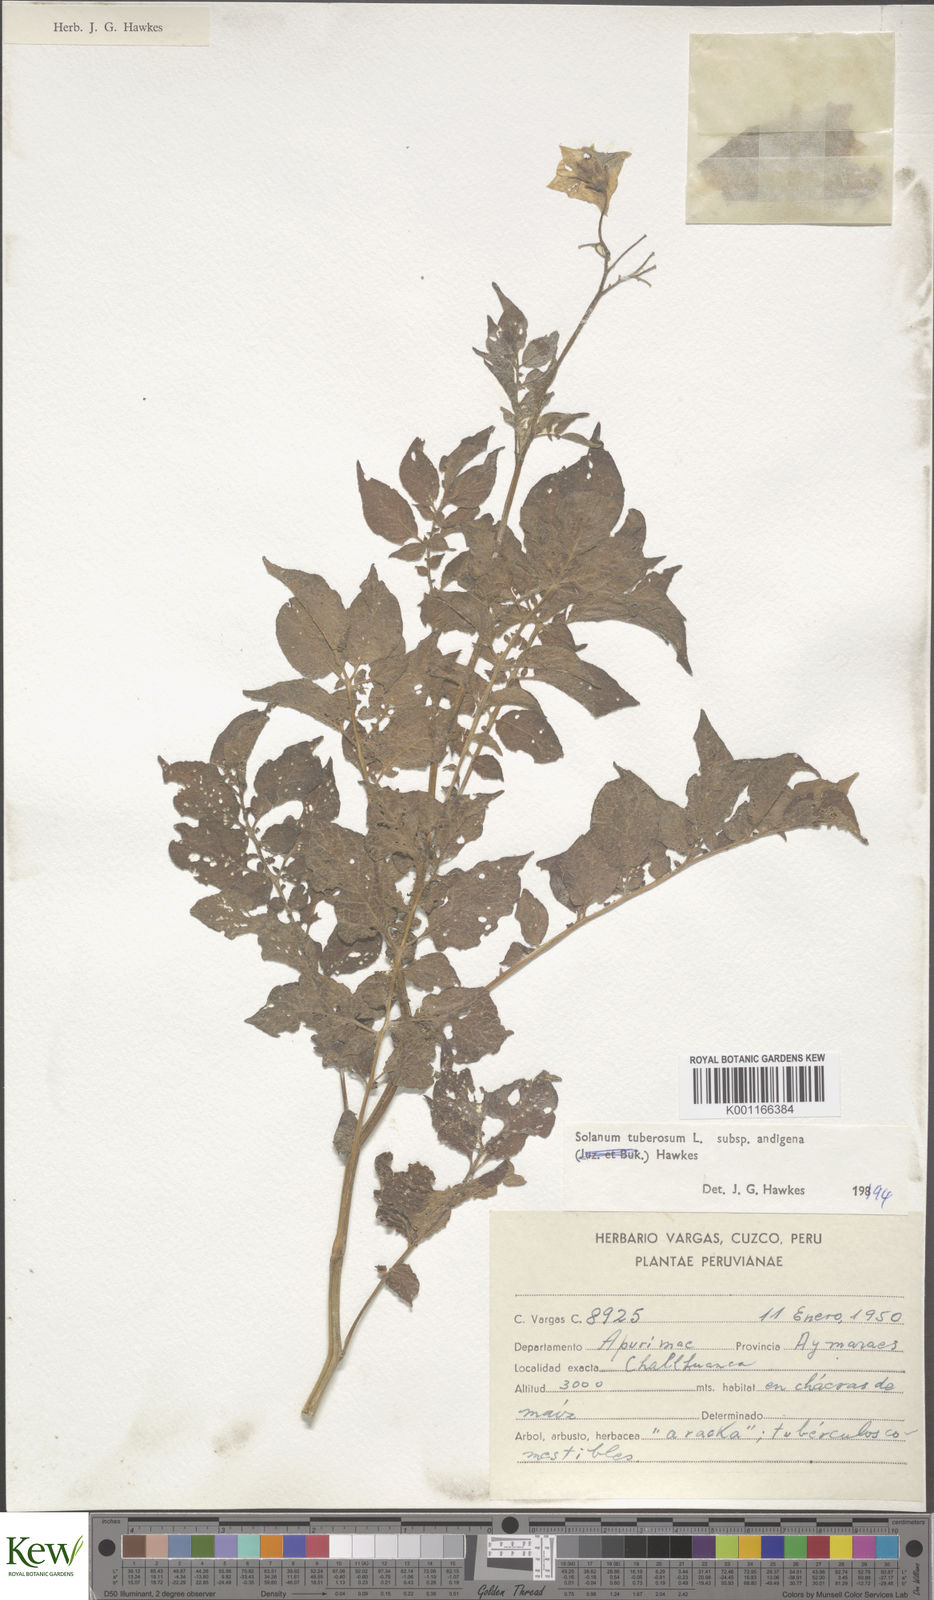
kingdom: Plantae
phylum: Tracheophyta
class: Magnoliopsida
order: Solanales
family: Solanaceae
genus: Solanum
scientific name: Solanum tuberosum
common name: Potato
